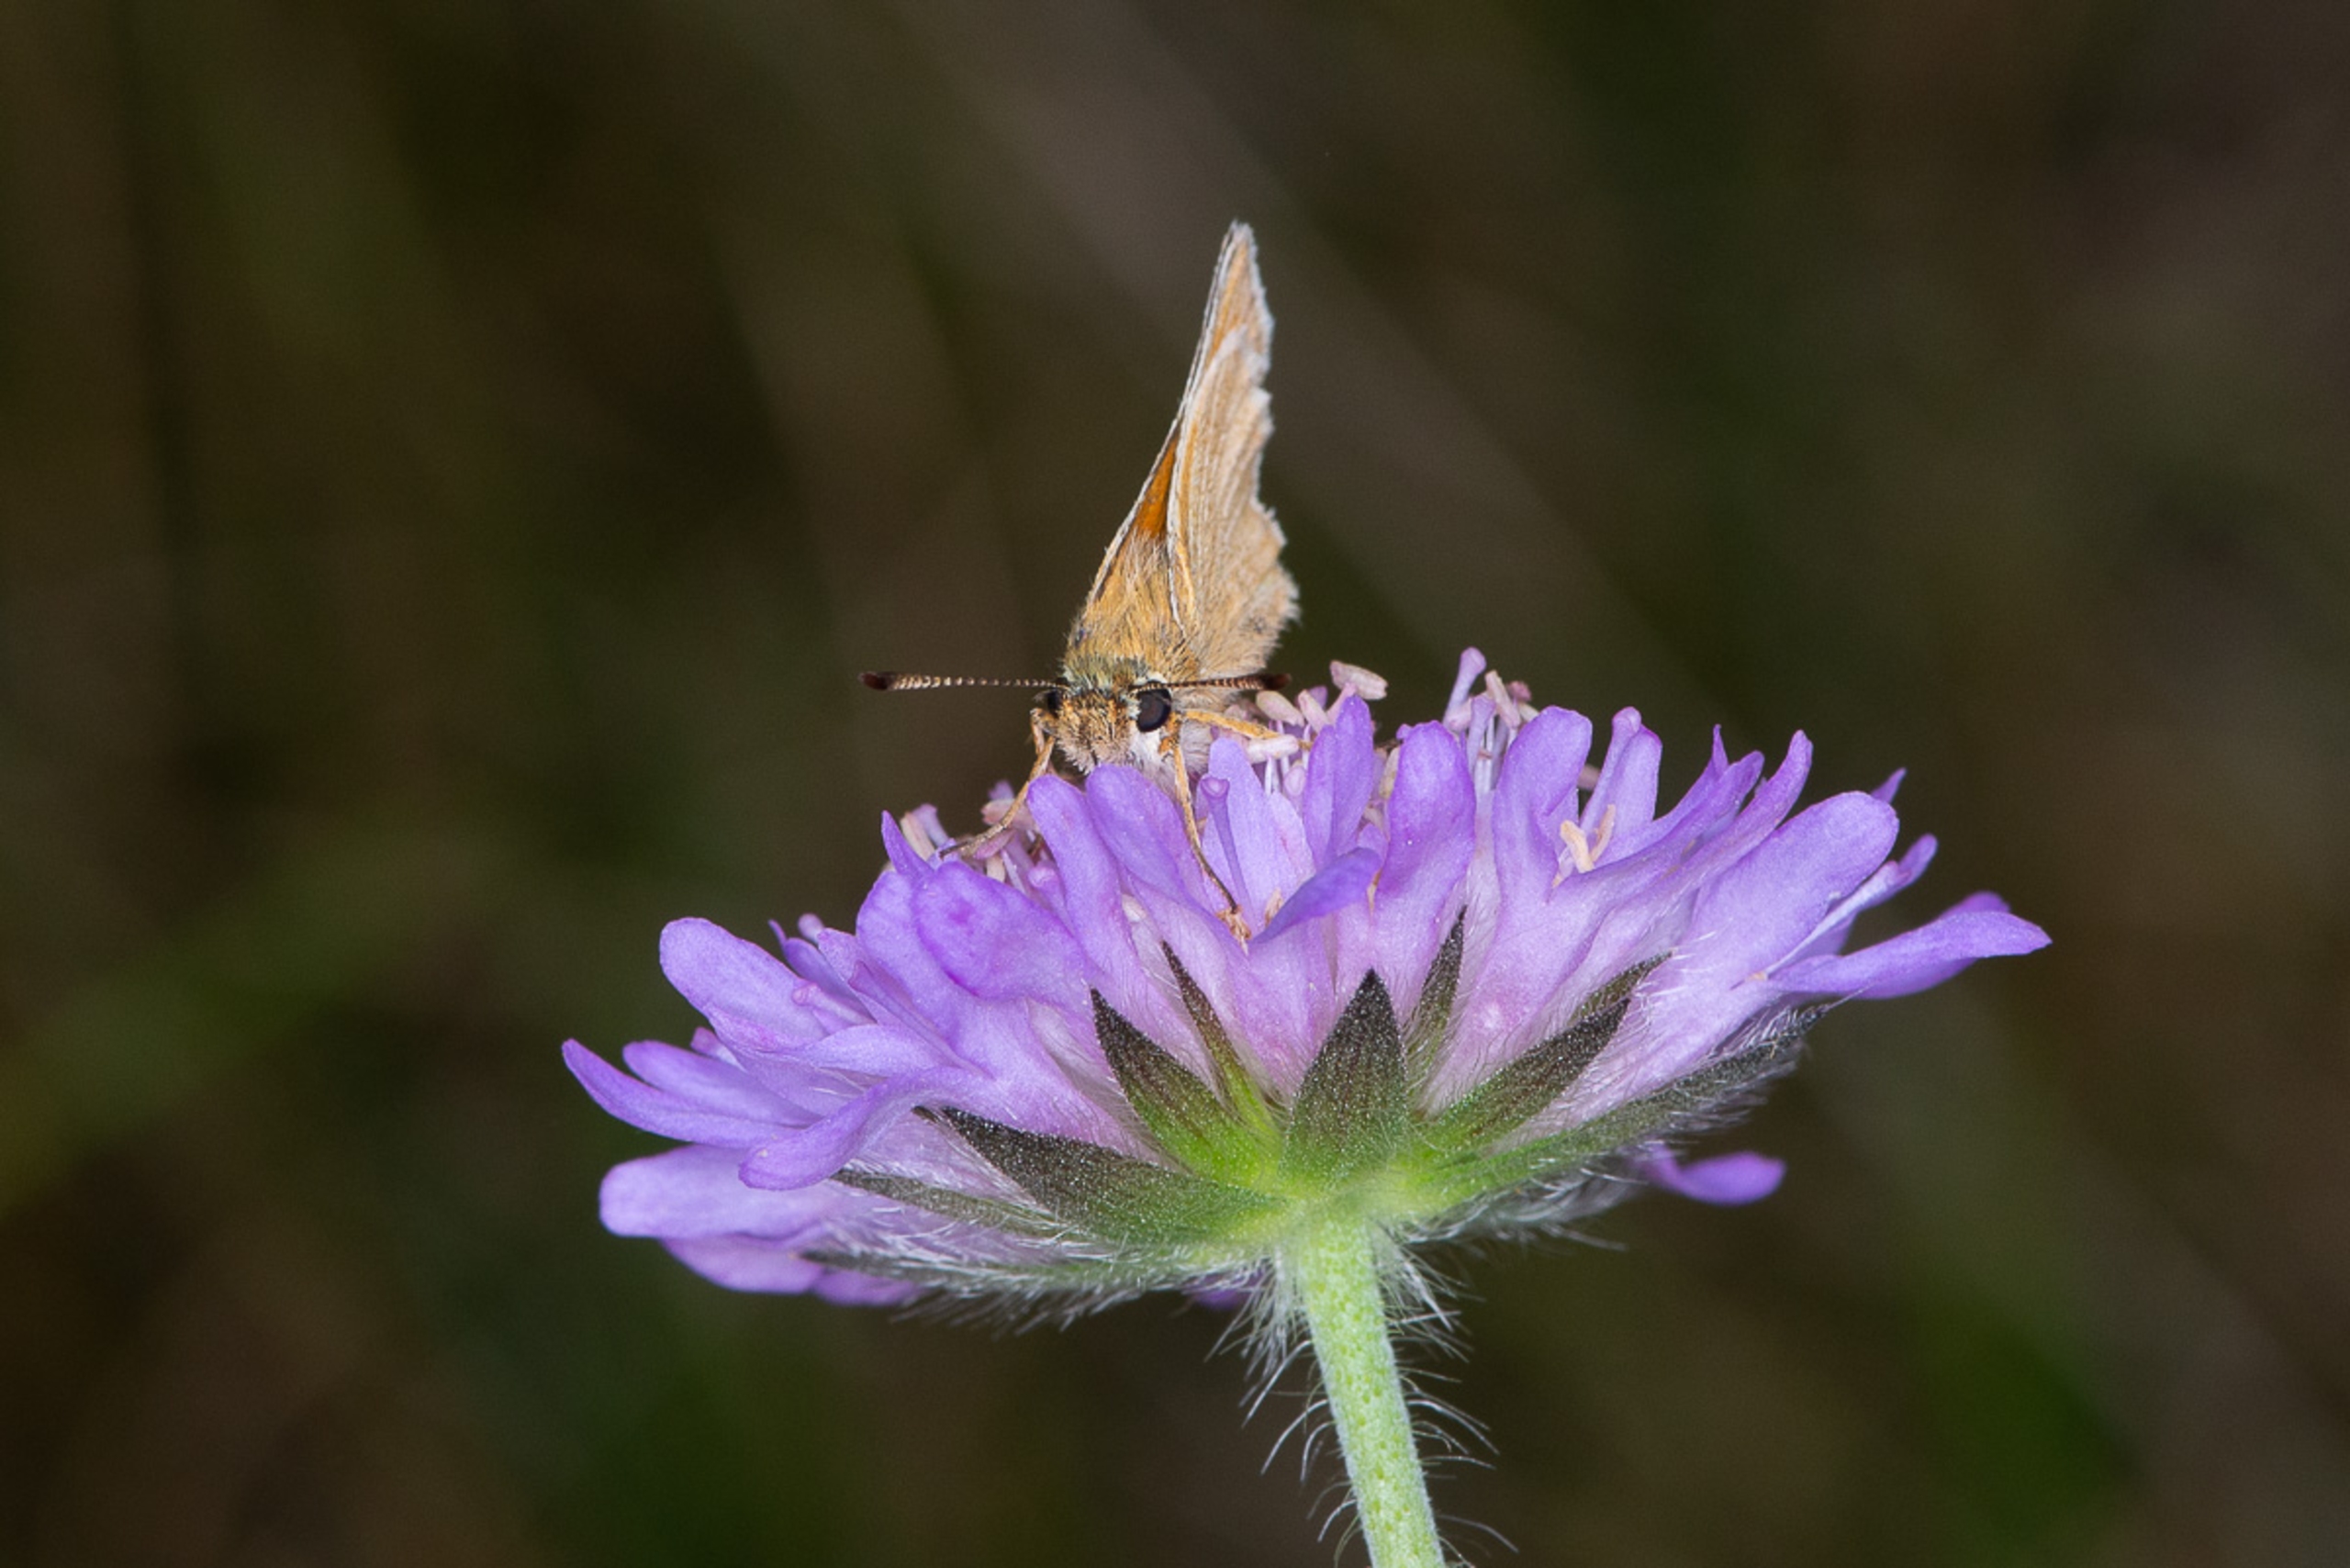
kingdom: Animalia
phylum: Arthropoda
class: Insecta
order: Lepidoptera
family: Hesperiidae
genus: Thymelicus
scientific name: Thymelicus lineola
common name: Stregbredpande
